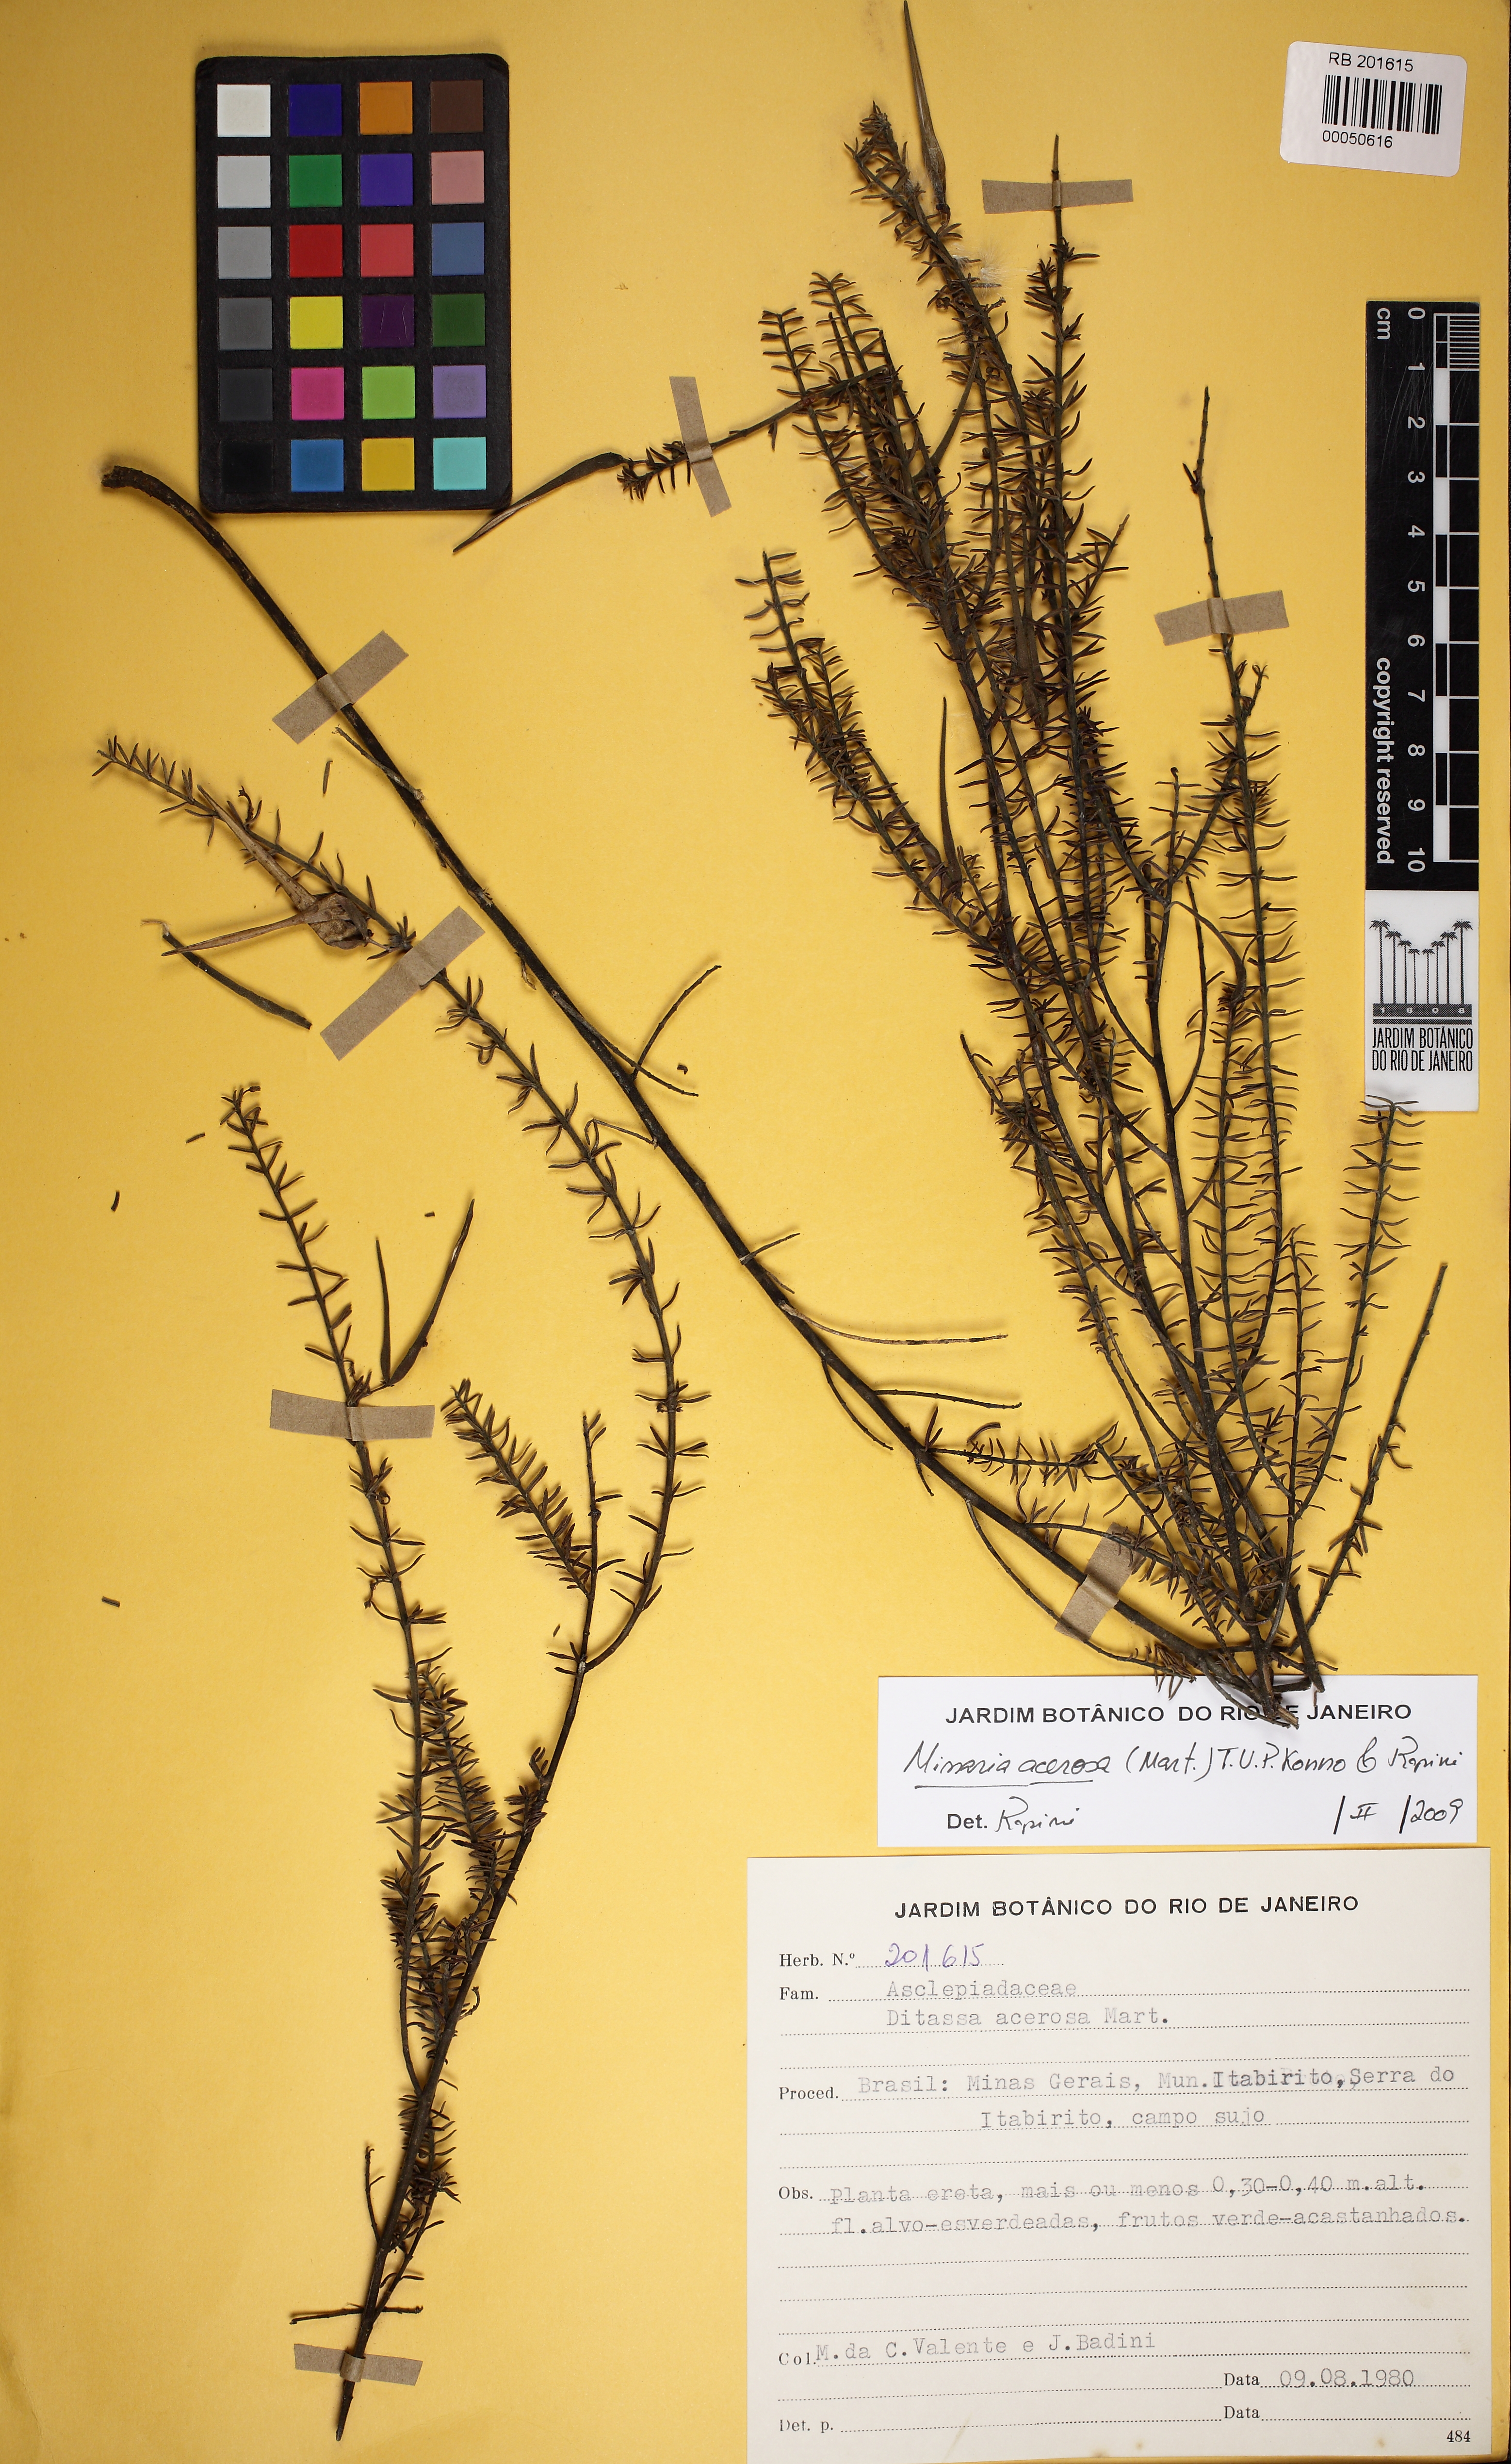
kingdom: Plantae
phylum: Tracheophyta
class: Magnoliopsida
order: Gentianales
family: Apocynaceae
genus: Minaria
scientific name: Minaria acerosa
